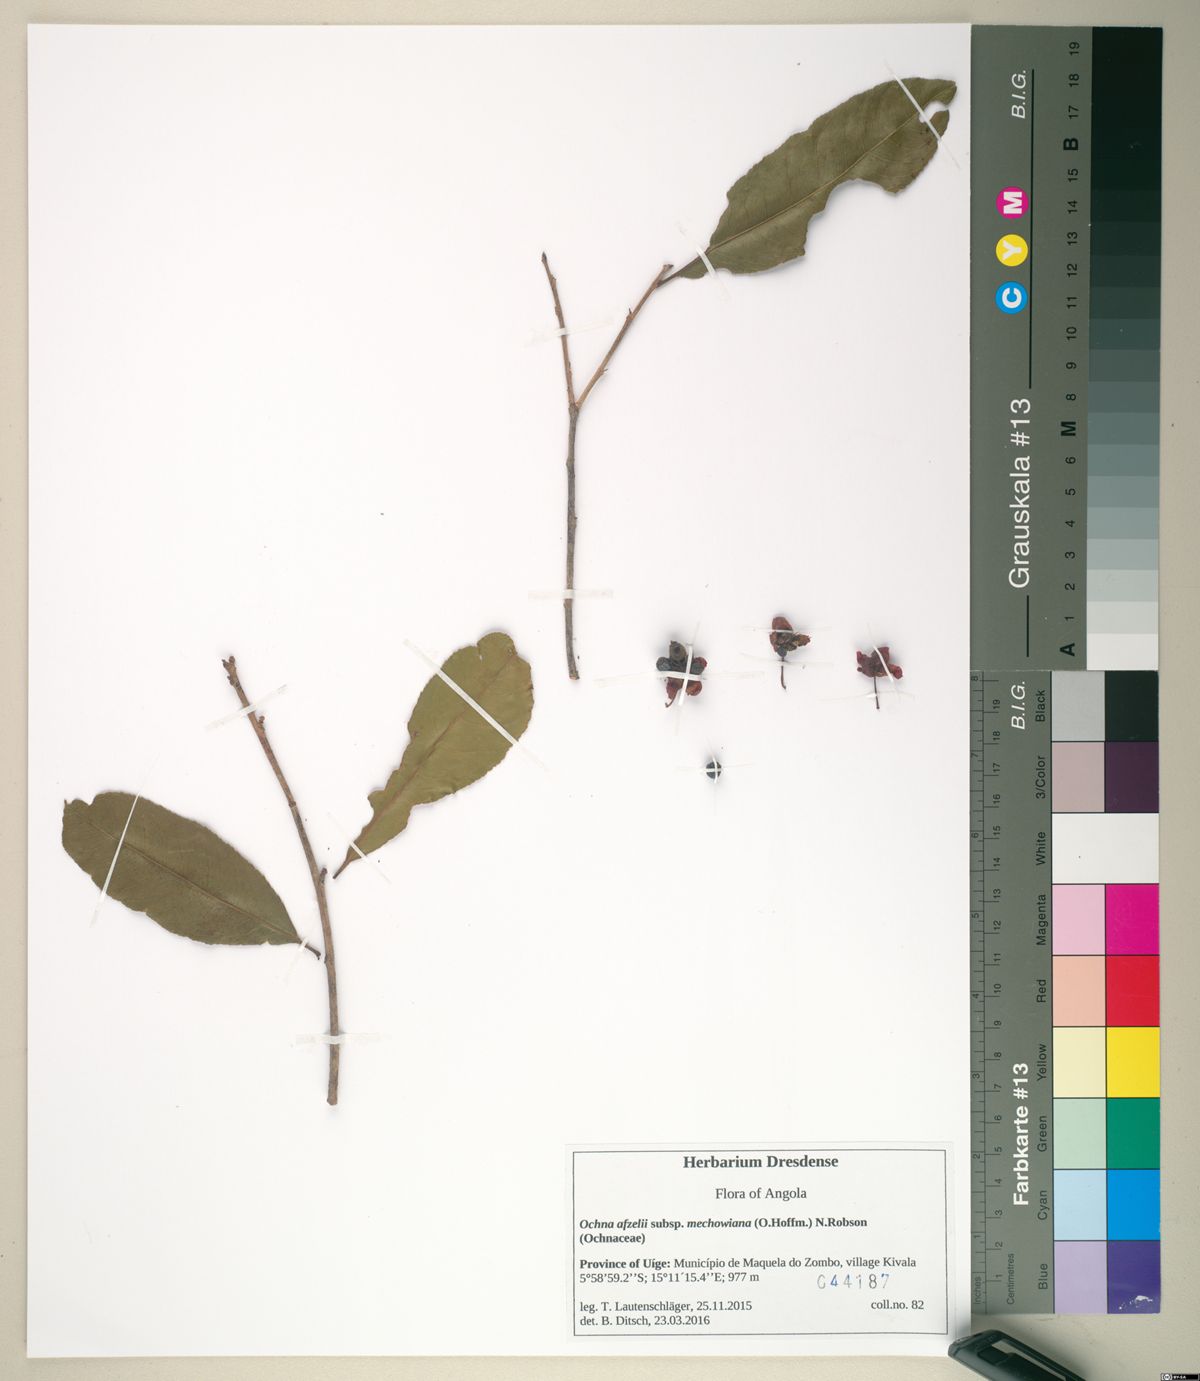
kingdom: Plantae
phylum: Tracheophyta
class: Magnoliopsida
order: Malpighiales
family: Ochnaceae
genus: Ochna
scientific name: Ochna afzelii
